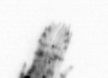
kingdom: Animalia
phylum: Arthropoda
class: Copepoda
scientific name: Copepoda
